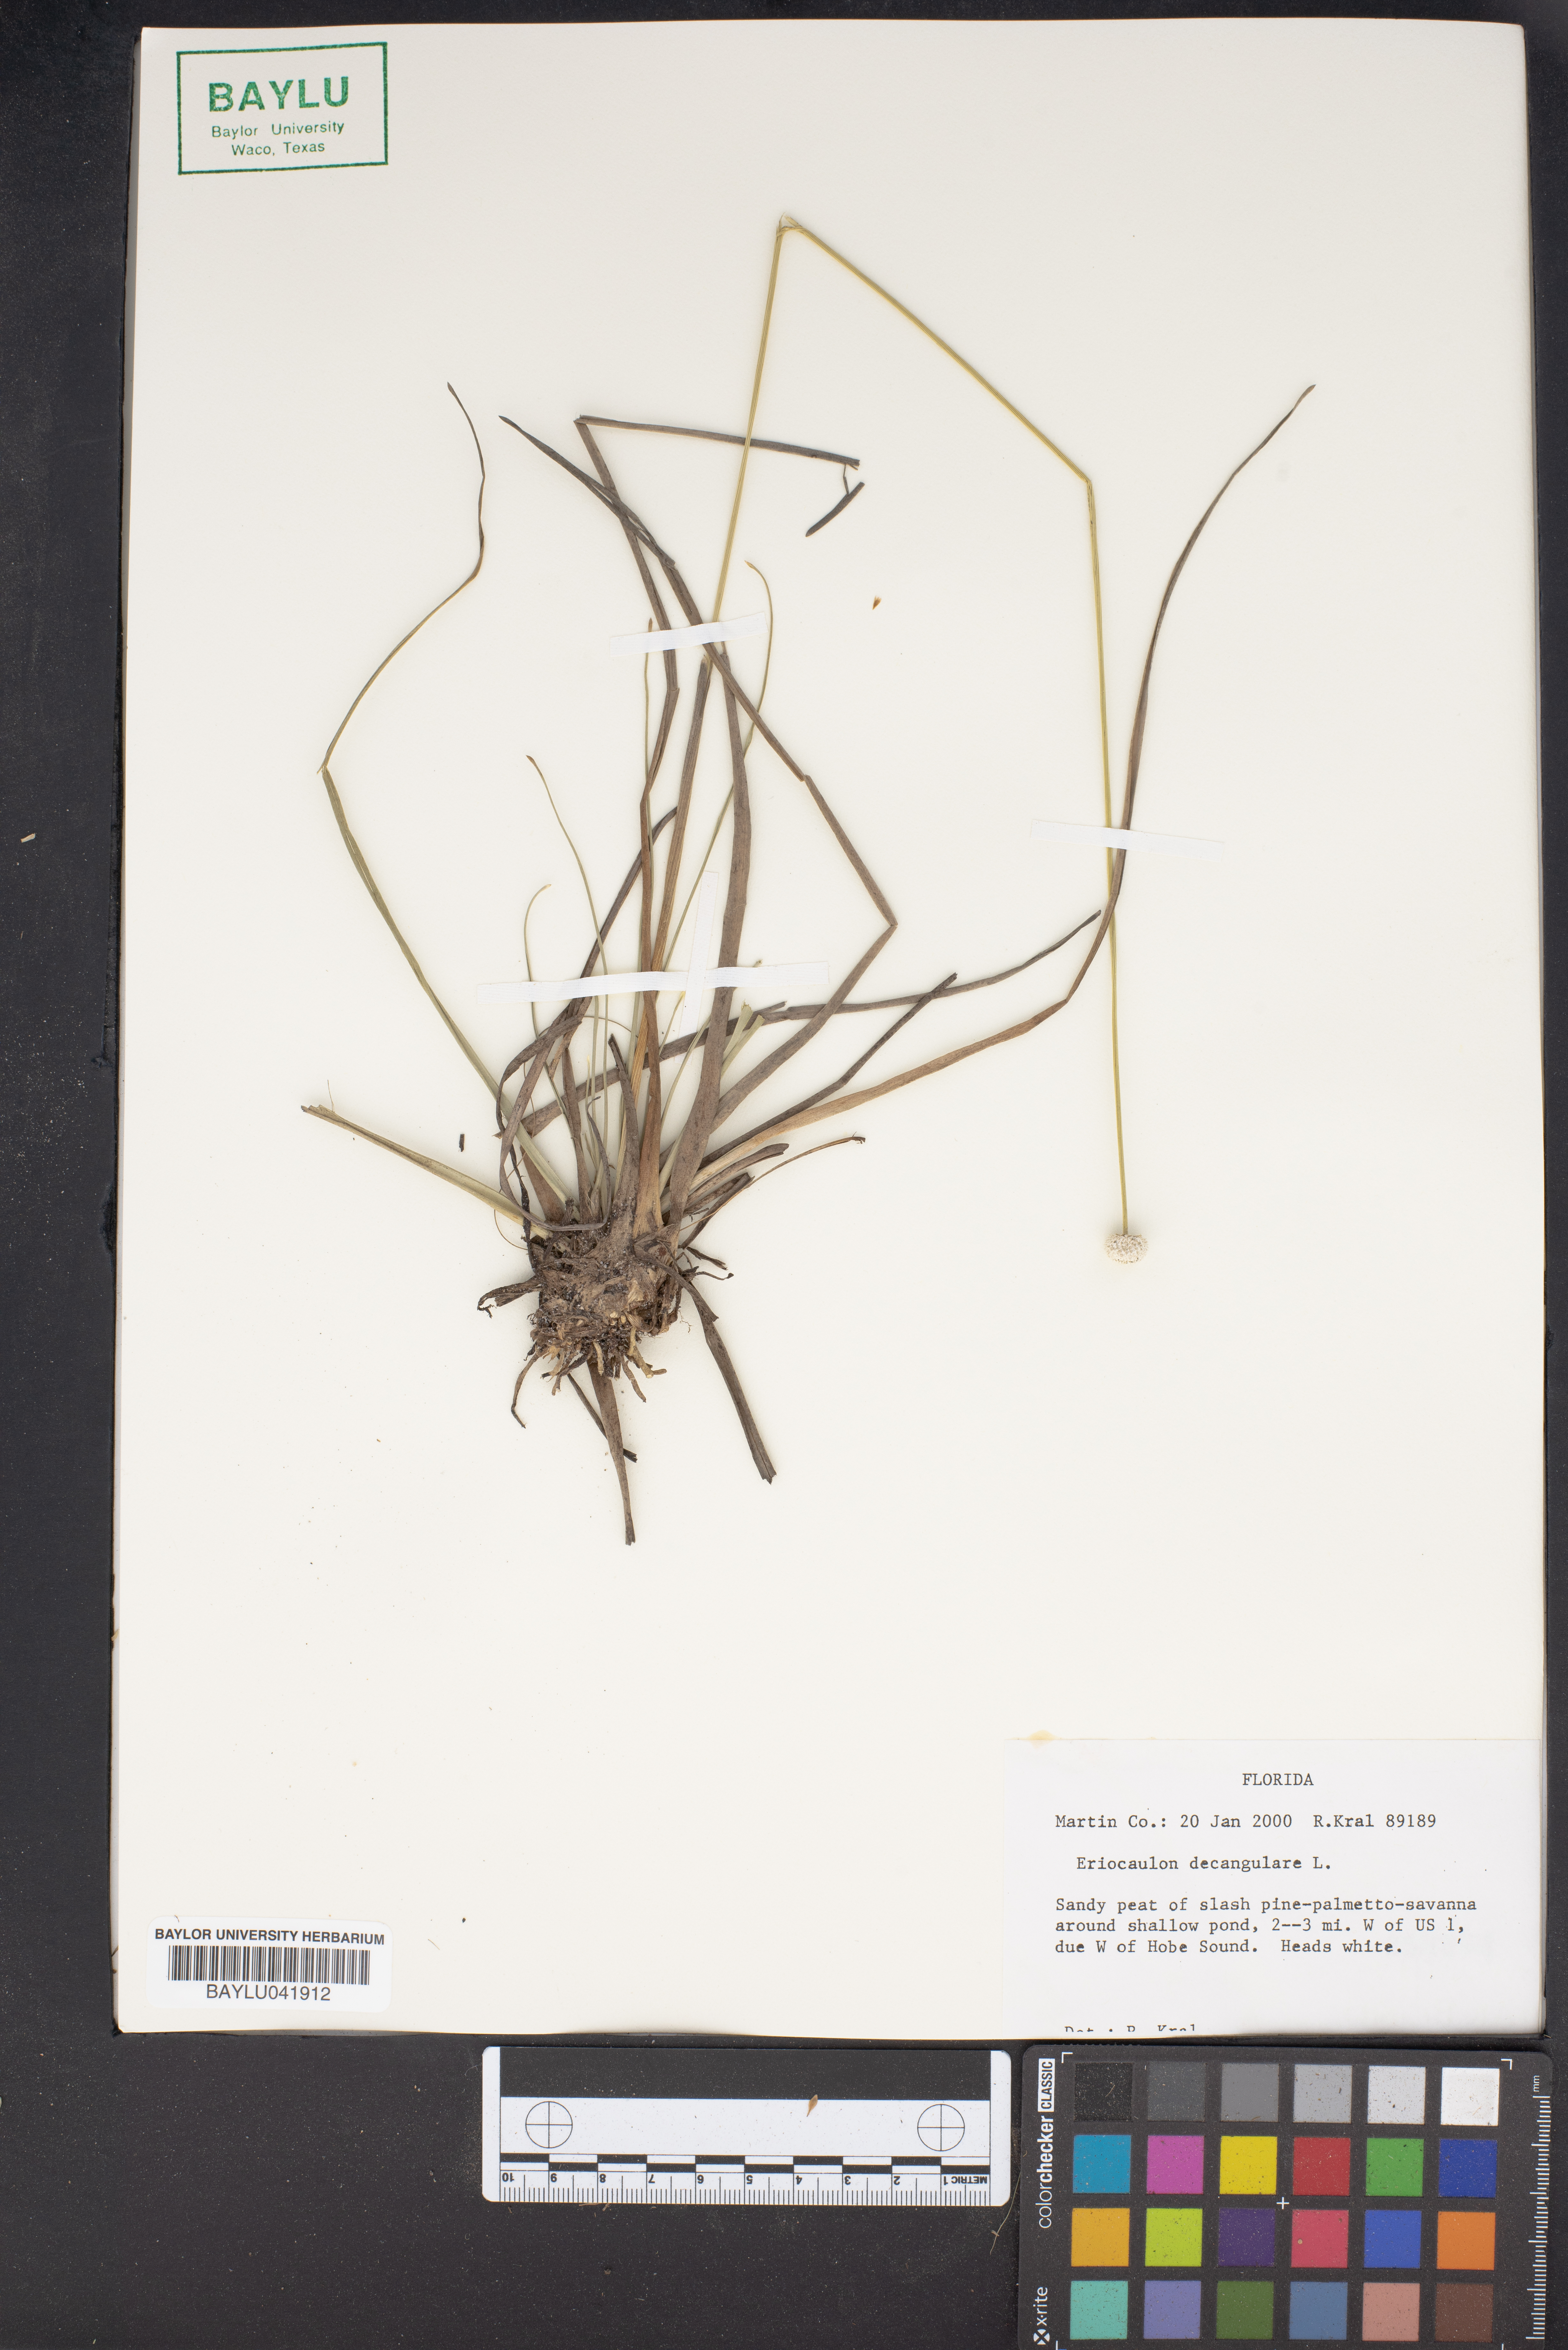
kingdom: Plantae
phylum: Tracheophyta
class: Liliopsida
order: Poales
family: Eriocaulaceae
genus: Eriocaulon
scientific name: Eriocaulon decangulare
